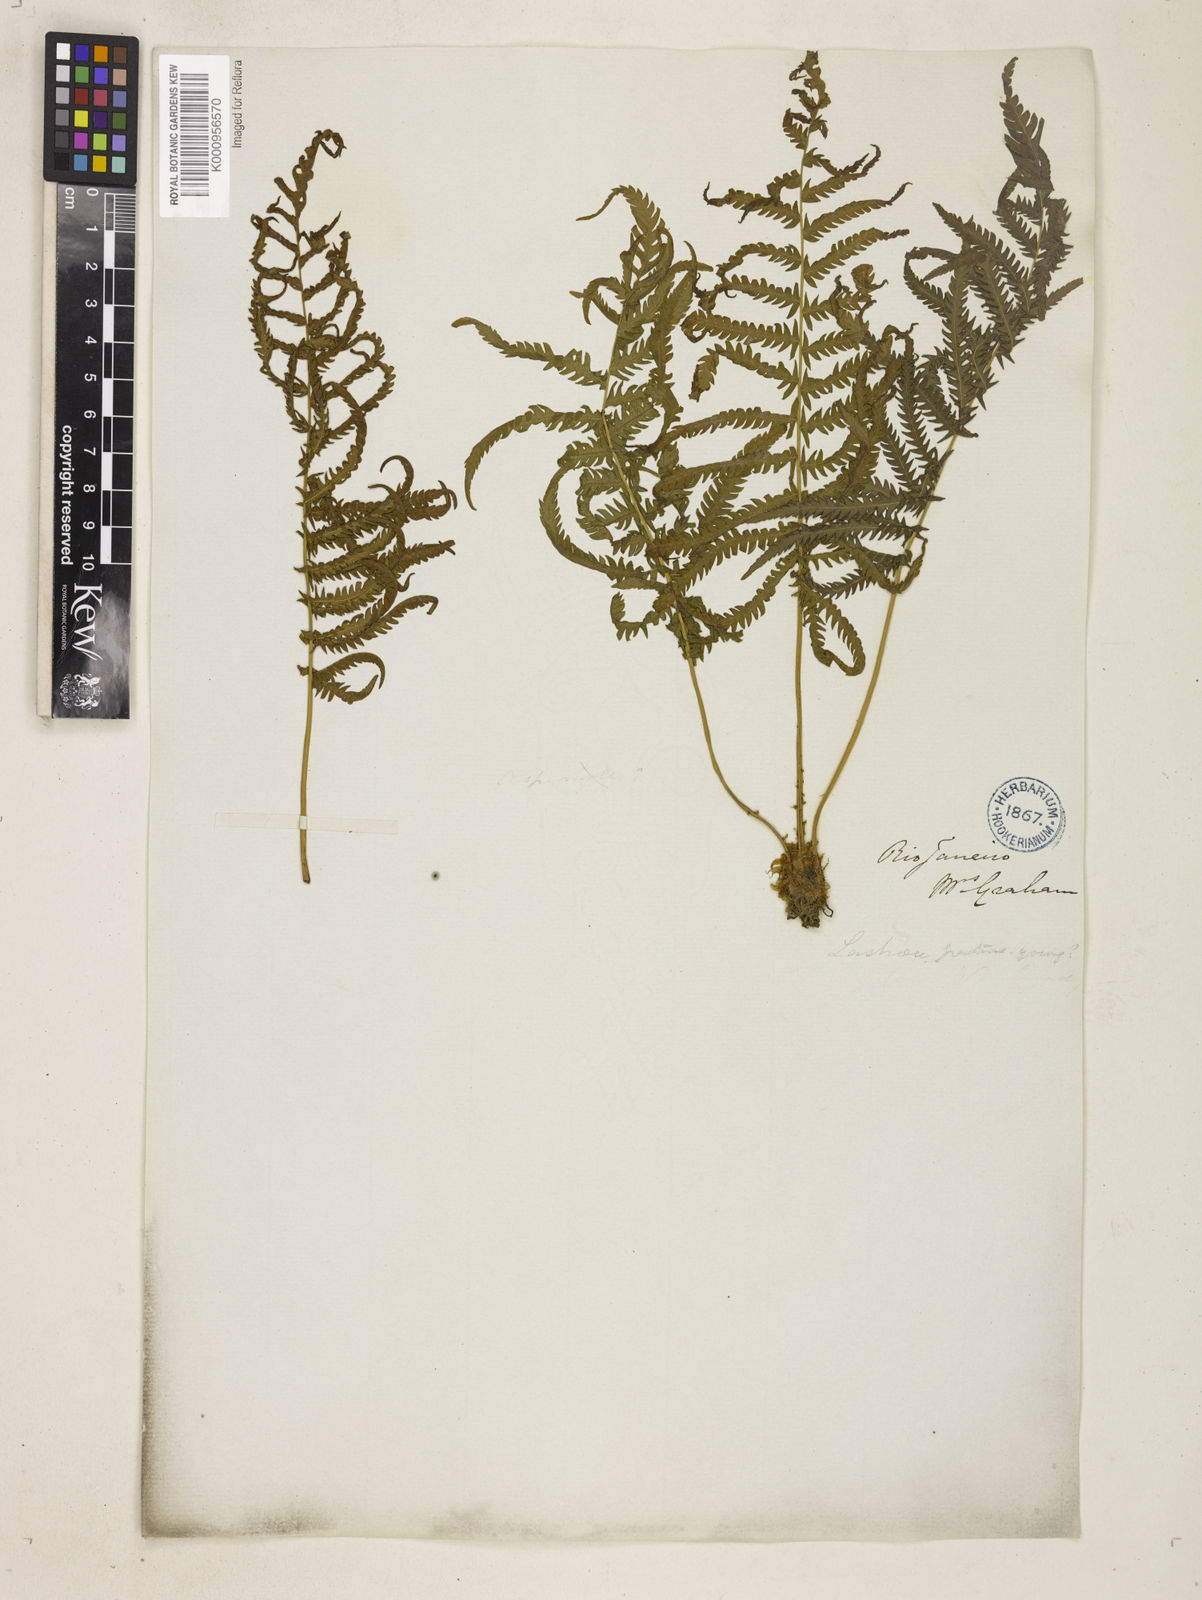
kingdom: Plantae
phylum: Tracheophyta
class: Polypodiopsida
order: Polypodiales
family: Thelypteridaceae
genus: Pelazoneuron
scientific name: Pelazoneuron patens
